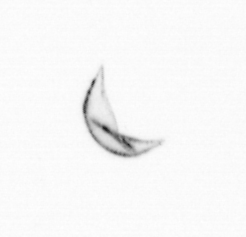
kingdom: Chromista
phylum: Ochrophyta
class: Bacillariophyceae
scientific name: Bacillariophyceae
